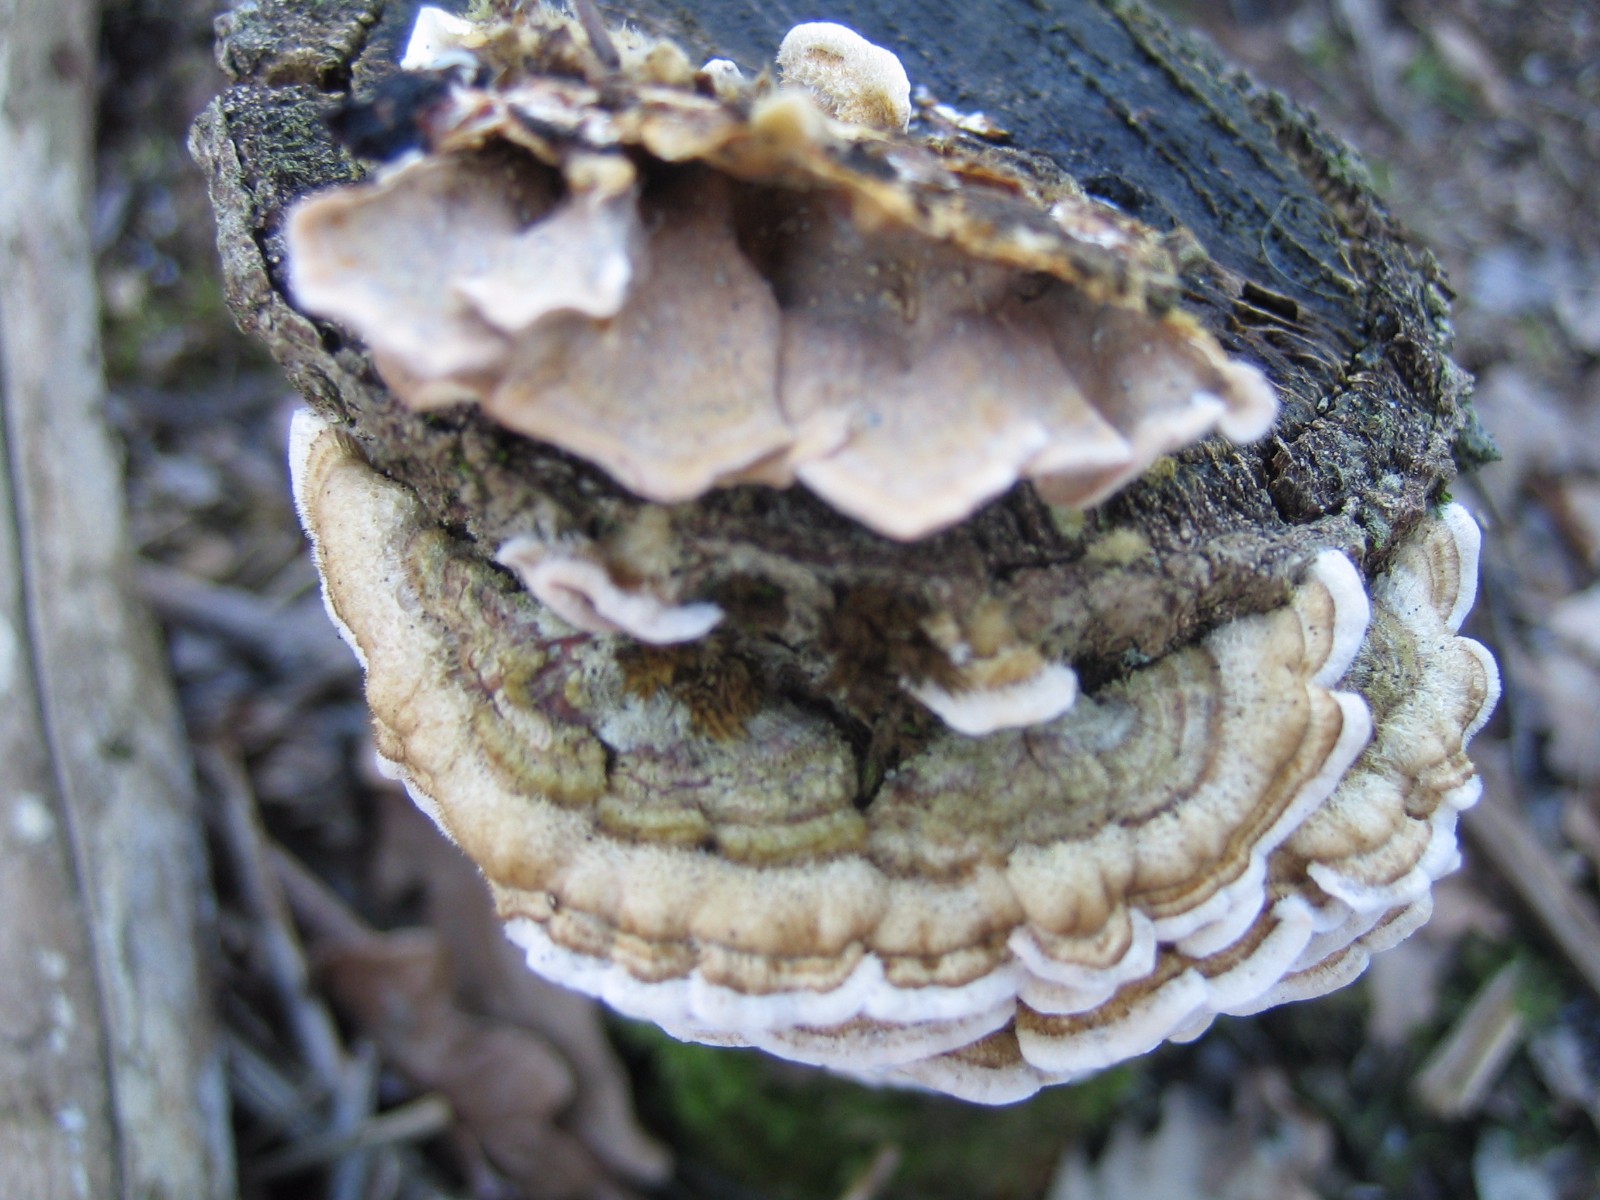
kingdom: Fungi
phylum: Basidiomycota
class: Agaricomycetes
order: Russulales
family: Stereaceae
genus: Stereum
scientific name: Stereum hirsutum
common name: håret lædersvamp
